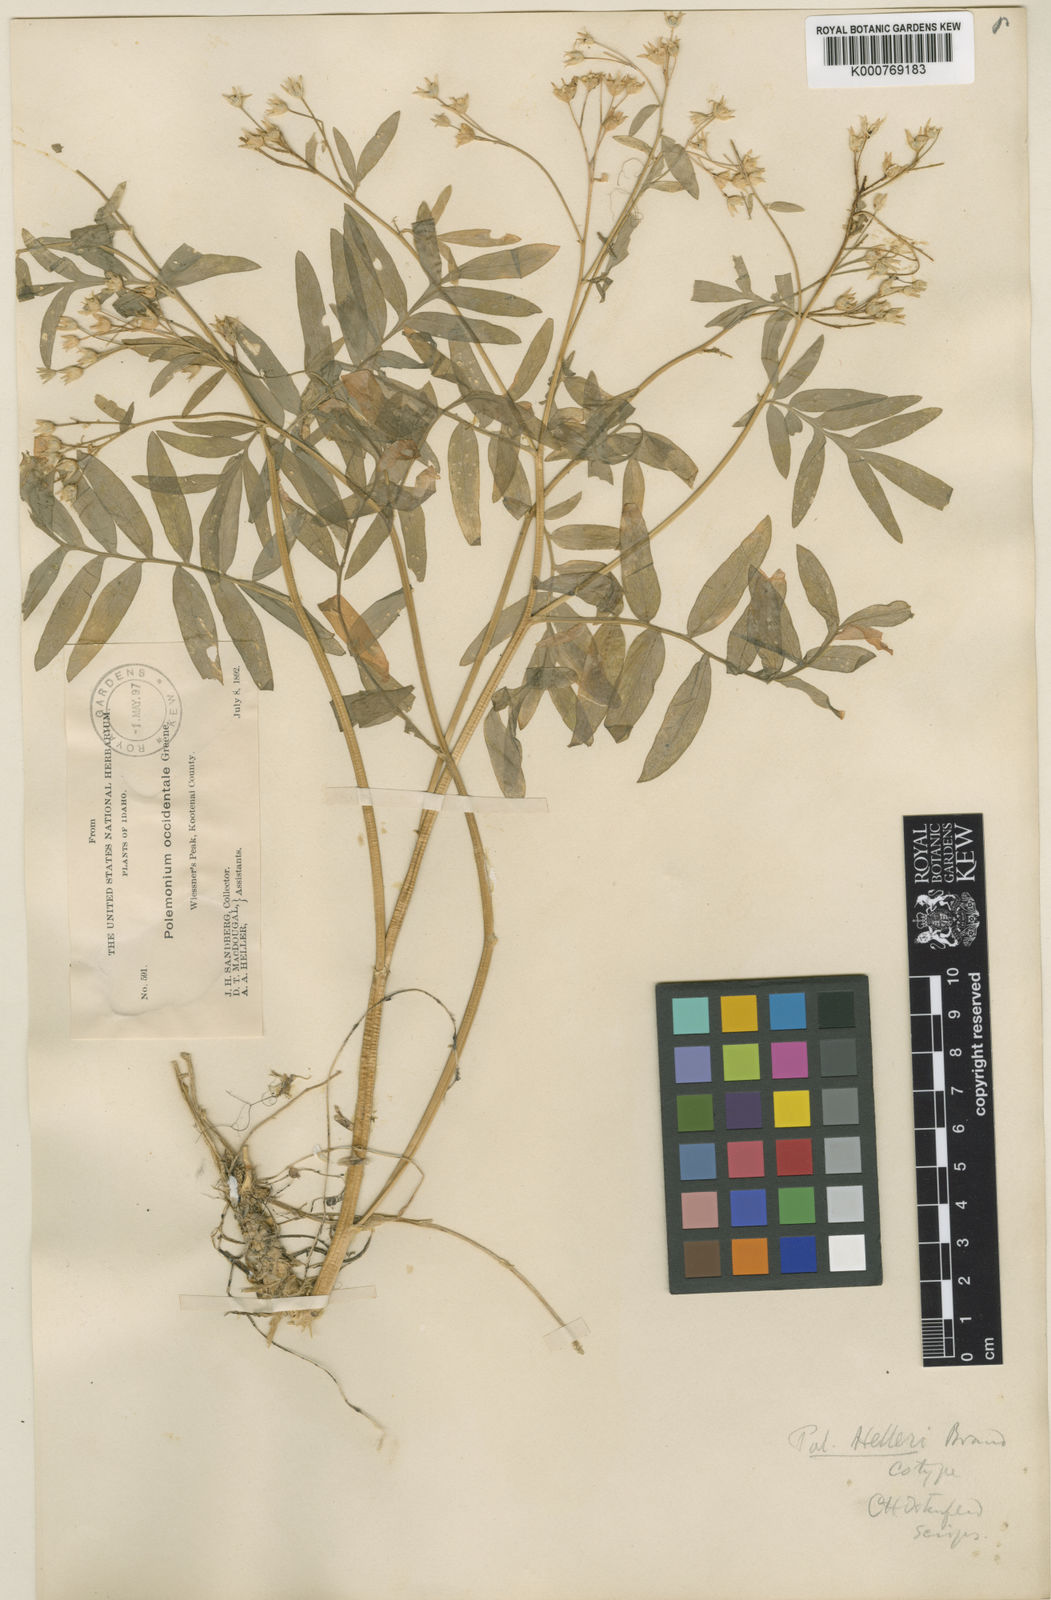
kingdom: Plantae
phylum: Tracheophyta
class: Magnoliopsida
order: Ericales
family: Polemoniaceae
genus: Polemonium
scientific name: Polemonium occidentale
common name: Western jacob's-ladder
